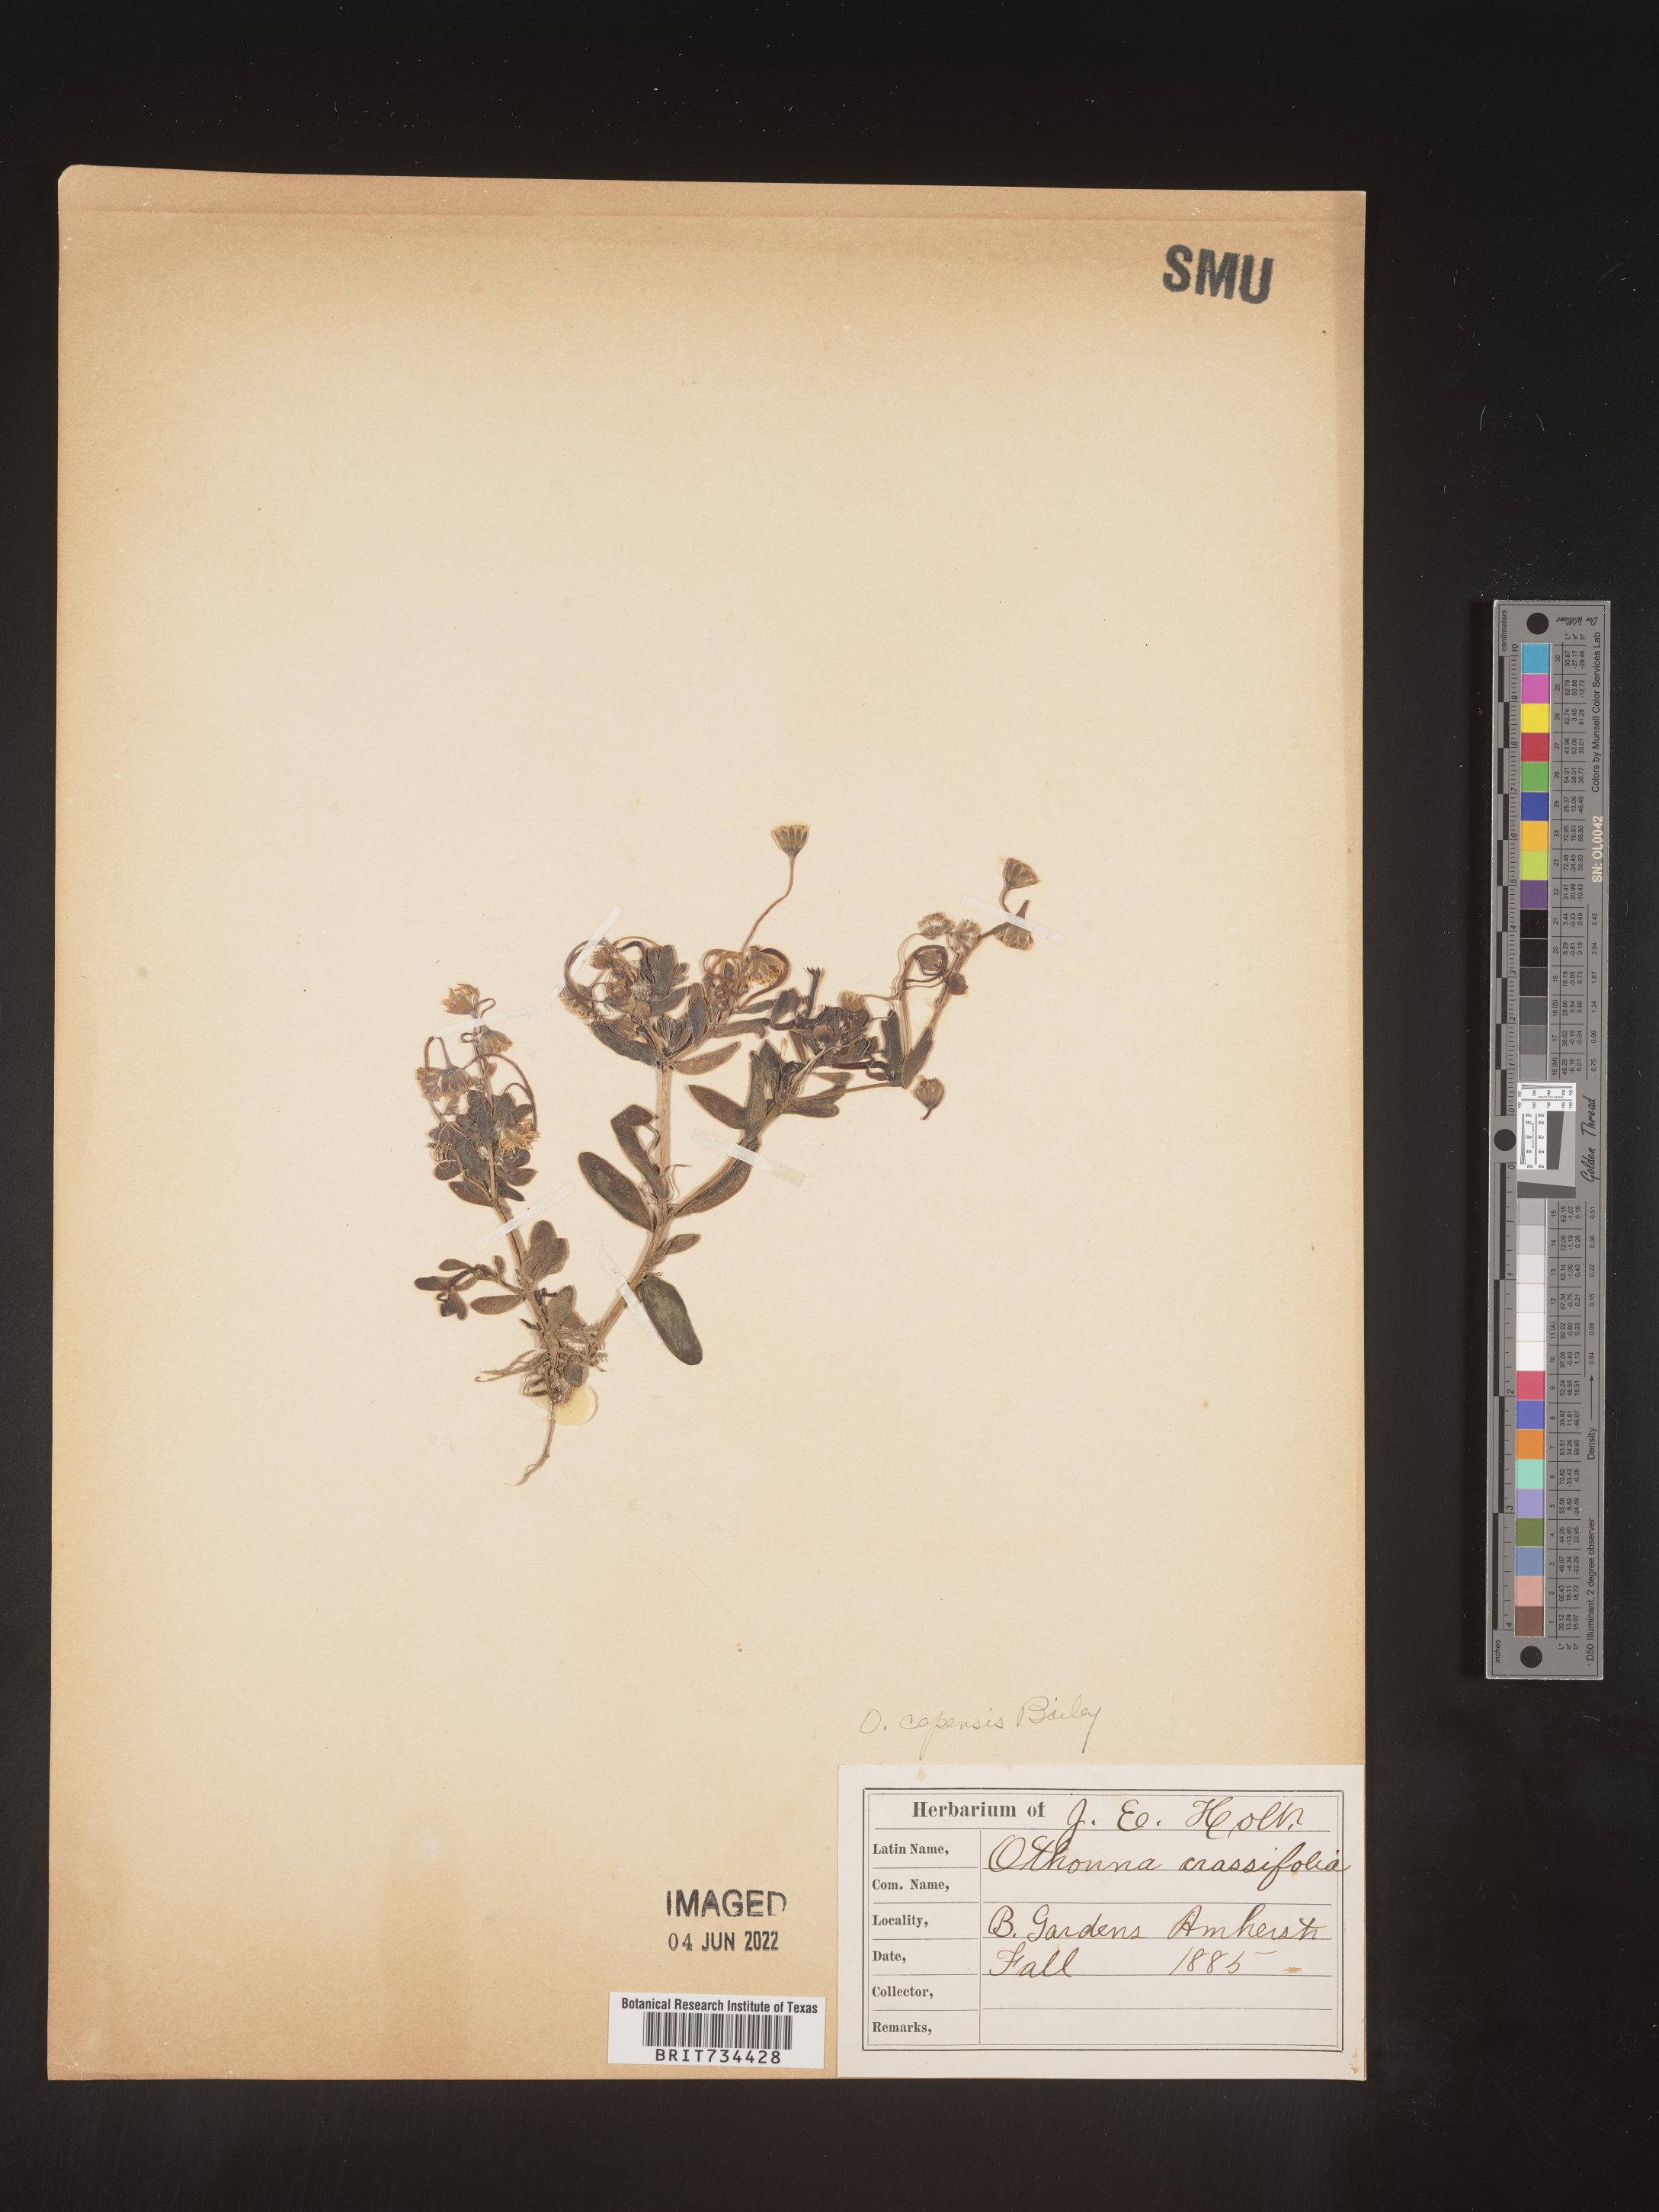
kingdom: Plantae
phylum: Tracheophyta
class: Magnoliopsida
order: Asterales
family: Asteraceae
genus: Crassothonna
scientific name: Crassothonna capensis
